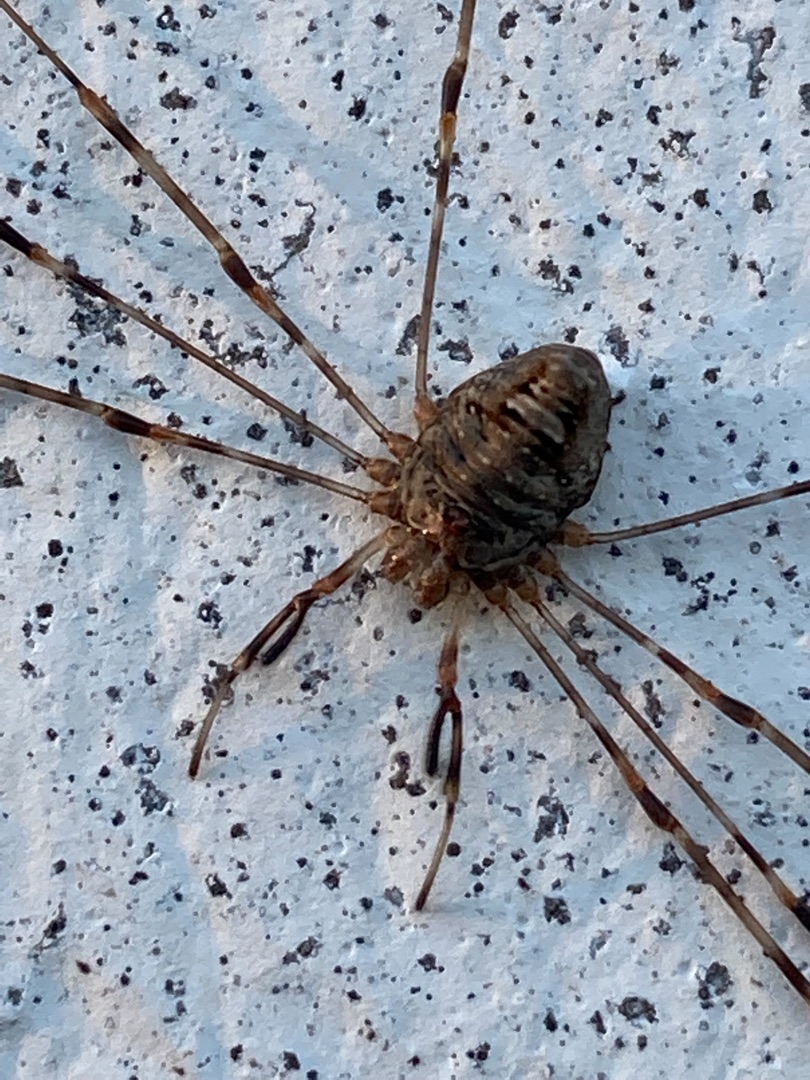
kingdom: Animalia
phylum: Arthropoda
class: Arachnida
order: Opiliones
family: Phalangiidae
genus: Dicranopalpus
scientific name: Dicranopalpus ramosus
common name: Gaffelmejer
